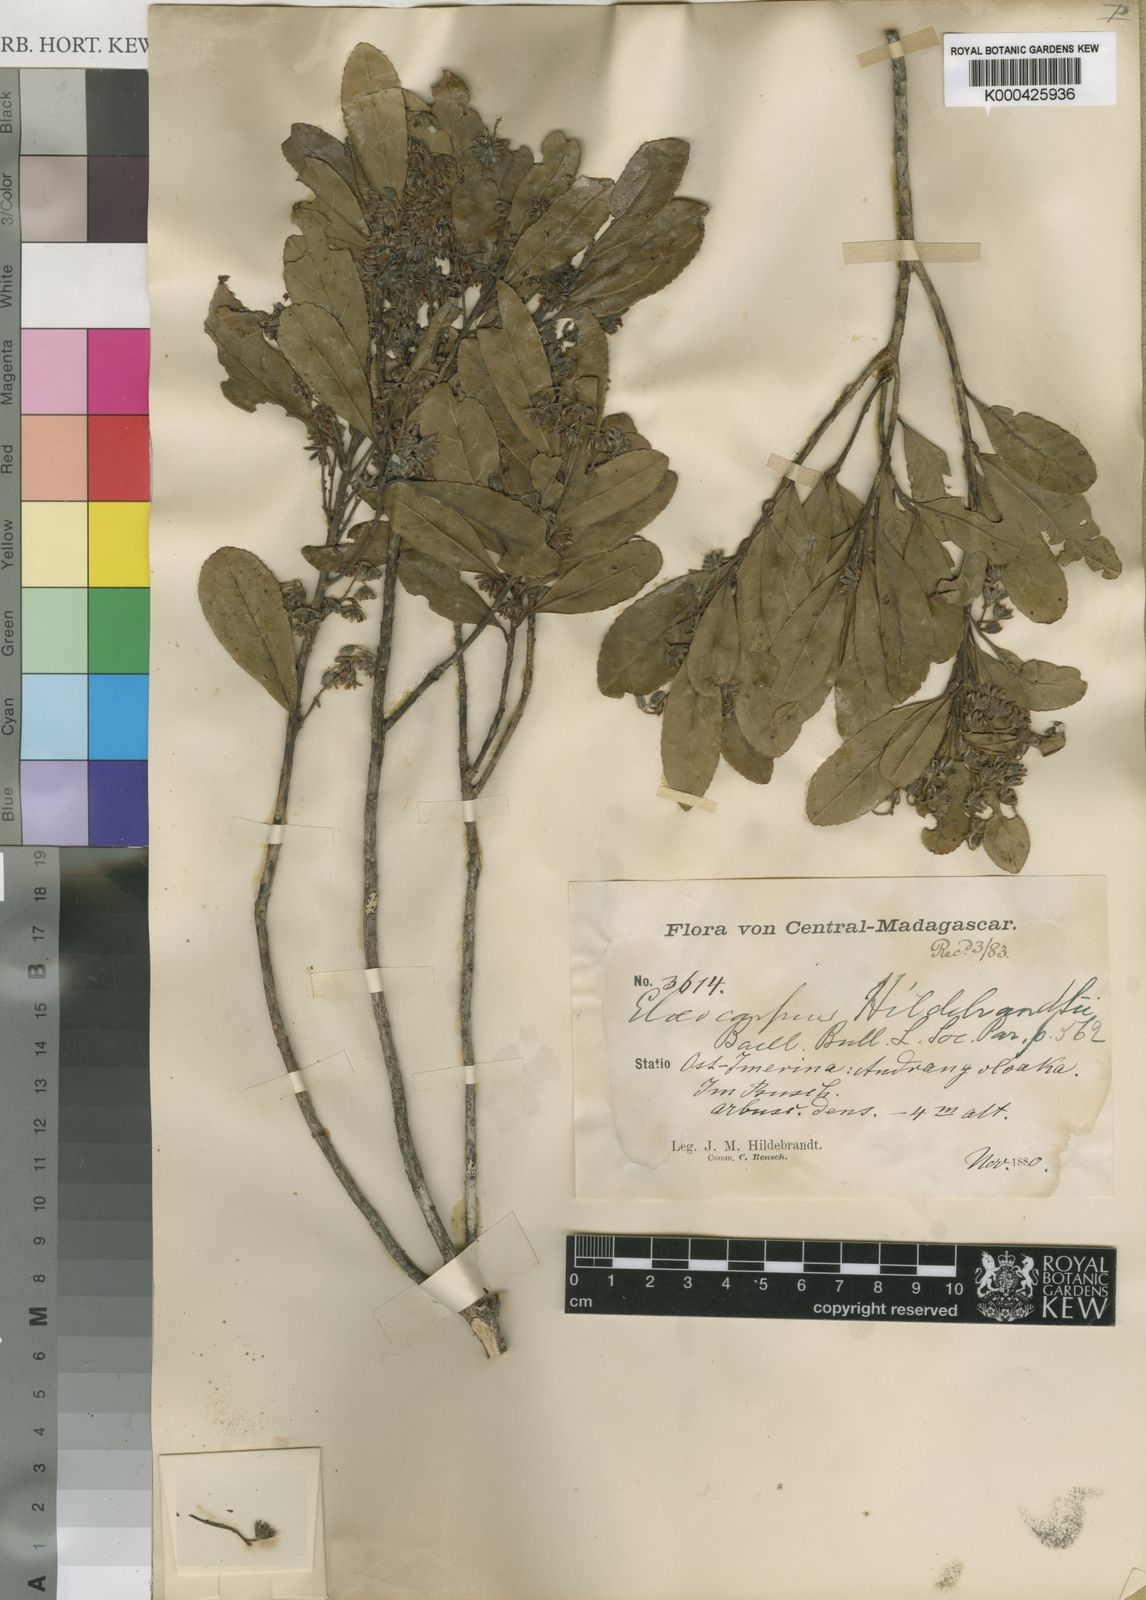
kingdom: Plantae
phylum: Tracheophyta
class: Magnoliopsida
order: Oxalidales
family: Elaeocarpaceae
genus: Elaeocarpus
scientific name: Elaeocarpus hildebrandtii
